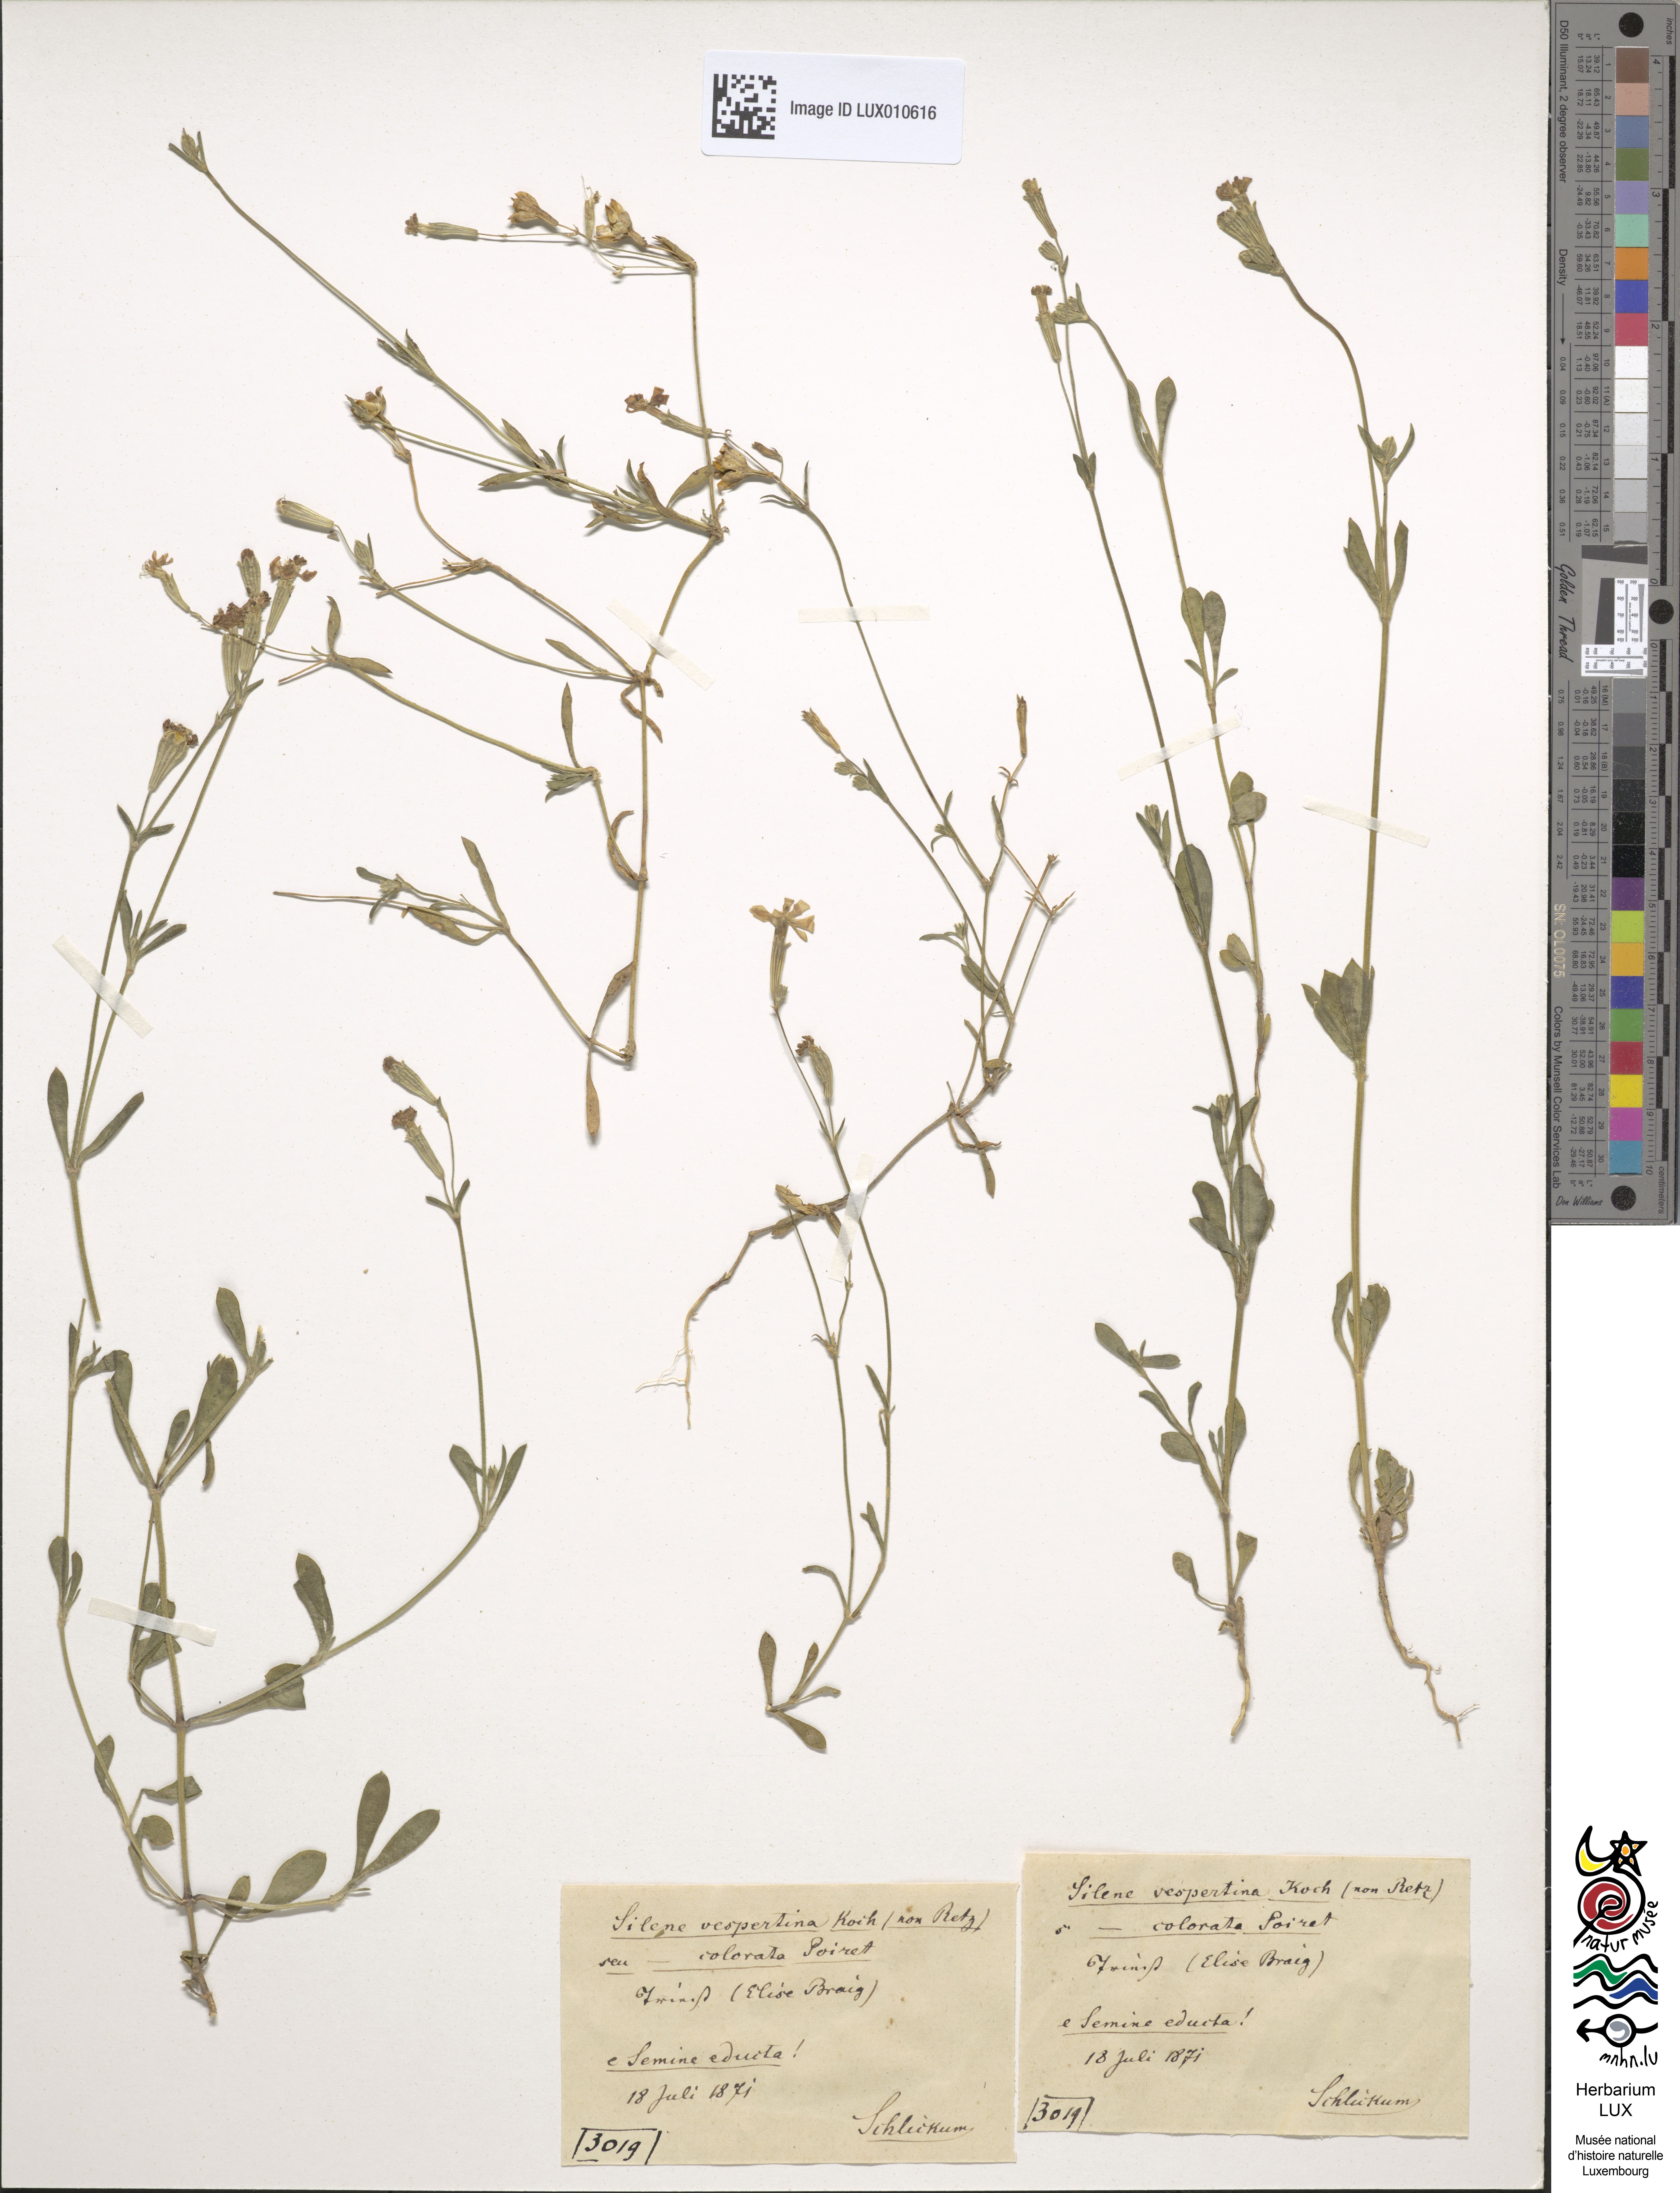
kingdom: Plantae
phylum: Tracheophyta
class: Magnoliopsida
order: Caryophyllales
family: Caryophyllaceae
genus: Silene
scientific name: Silene colorata
